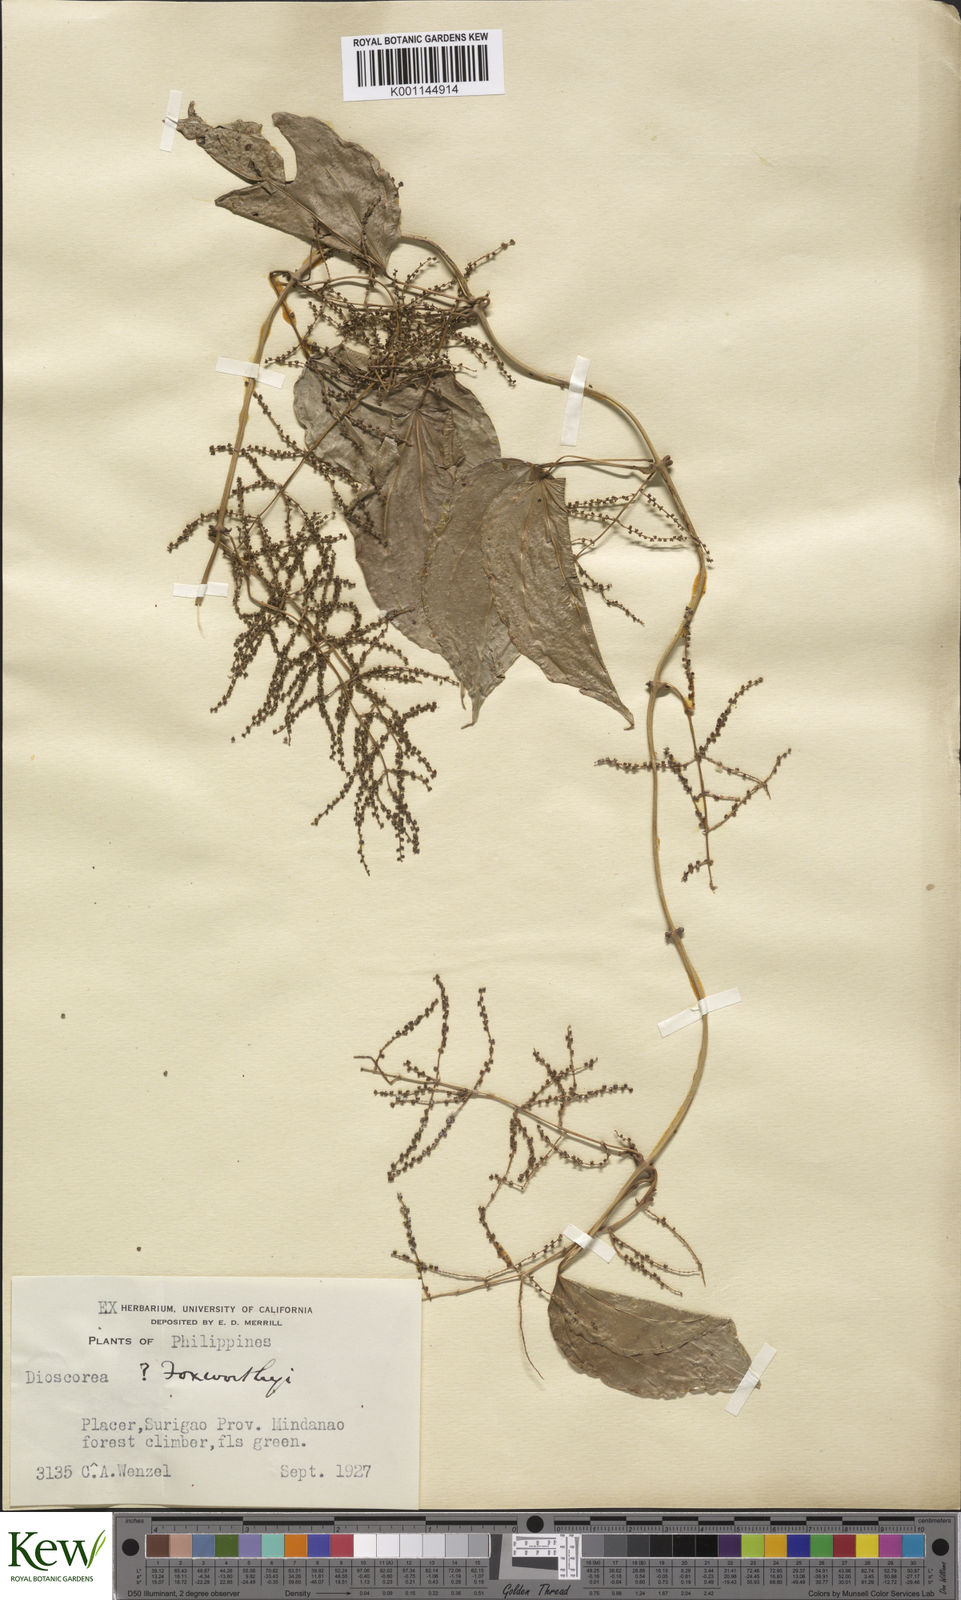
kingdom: Plantae
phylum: Tracheophyta
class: Liliopsida
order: Dioscoreales
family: Dioscoreaceae
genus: Dioscorea
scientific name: Dioscorea divaricata
